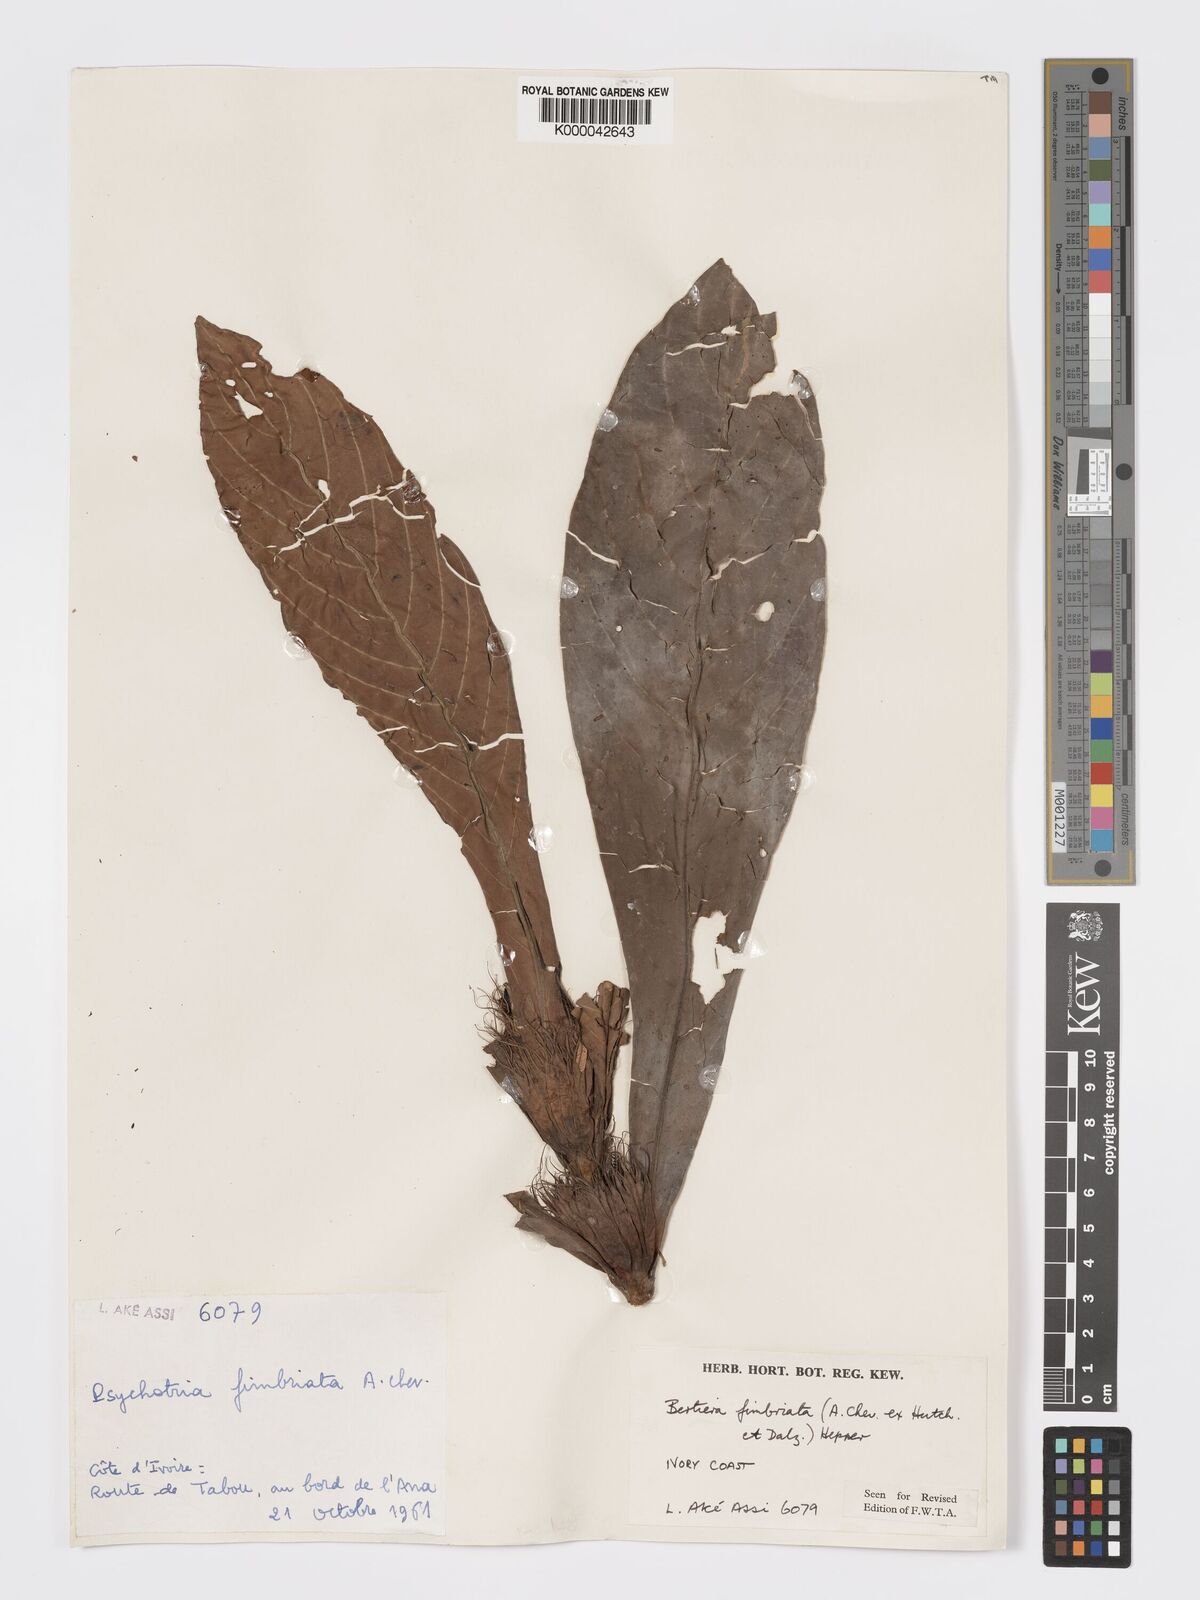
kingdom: Plantae
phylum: Tracheophyta
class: Magnoliopsida
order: Gentianales
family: Rubiaceae
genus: Bertiera
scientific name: Bertiera fimbriata
